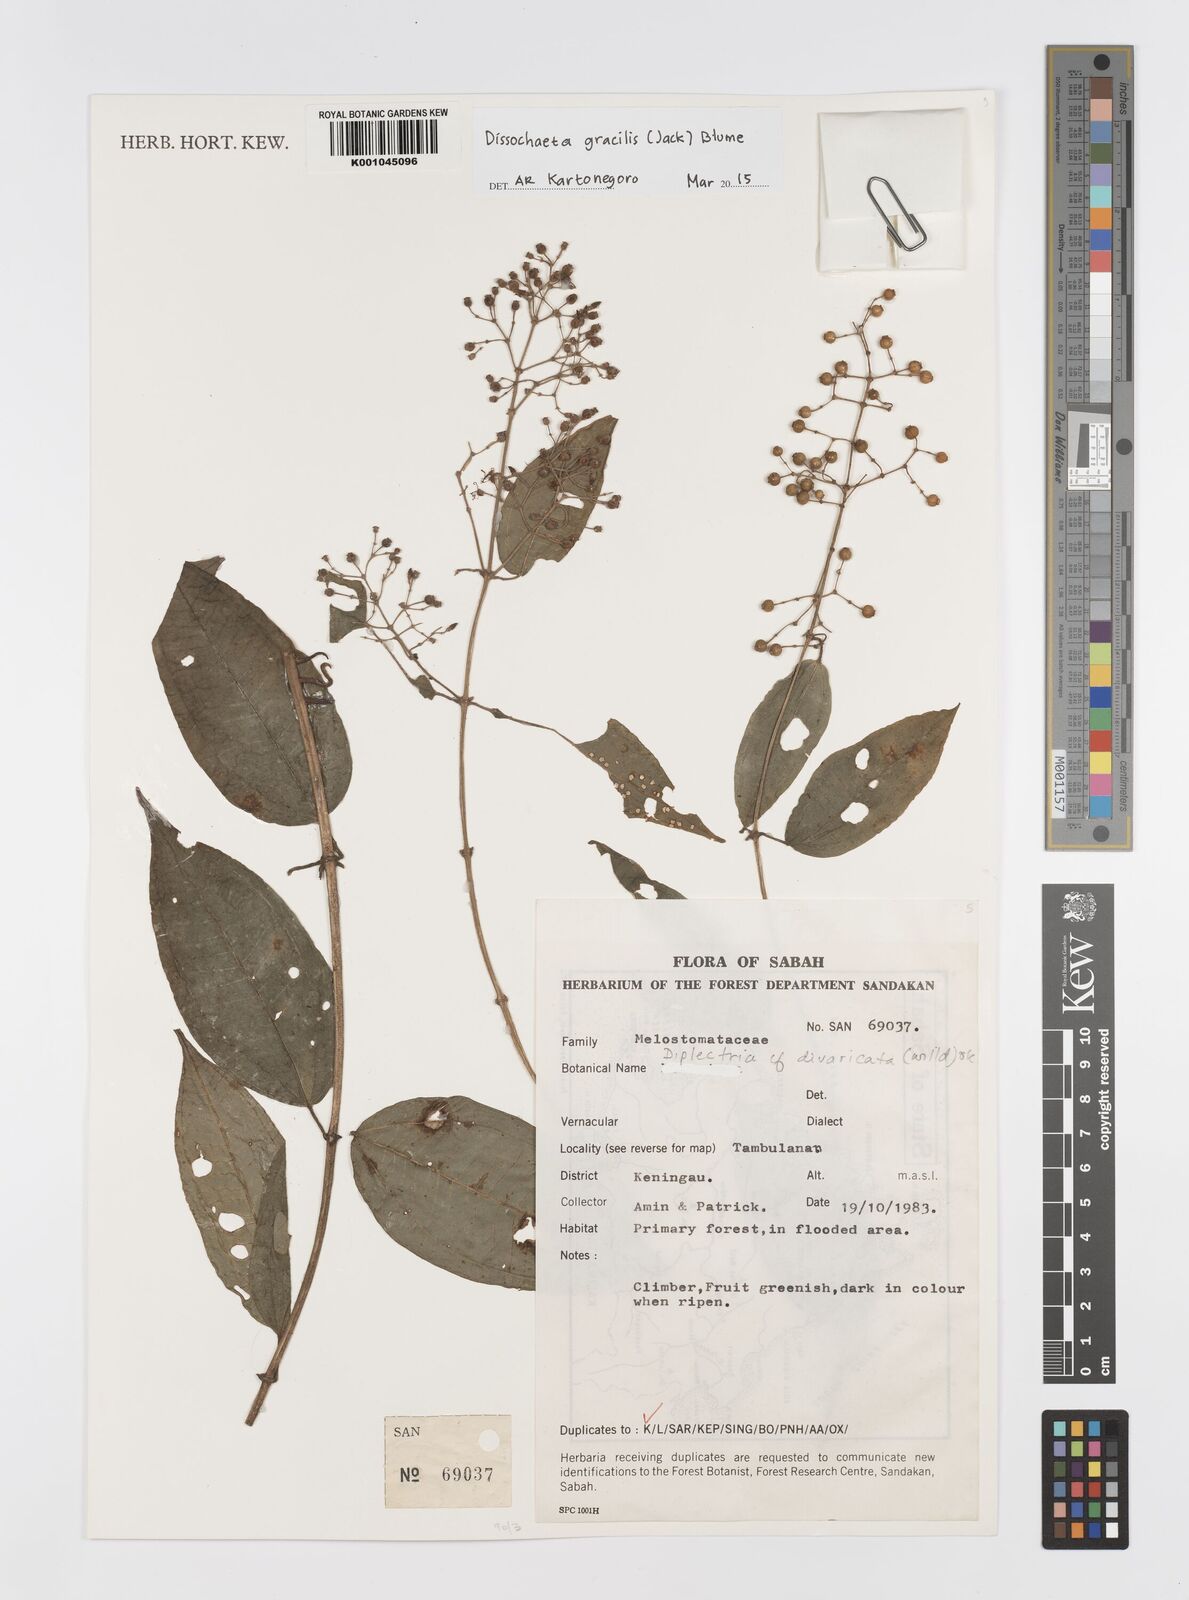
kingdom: Plantae
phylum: Tracheophyta
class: Magnoliopsida
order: Myrtales
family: Melastomataceae
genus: Dissochaeta
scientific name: Dissochaeta gracilis
